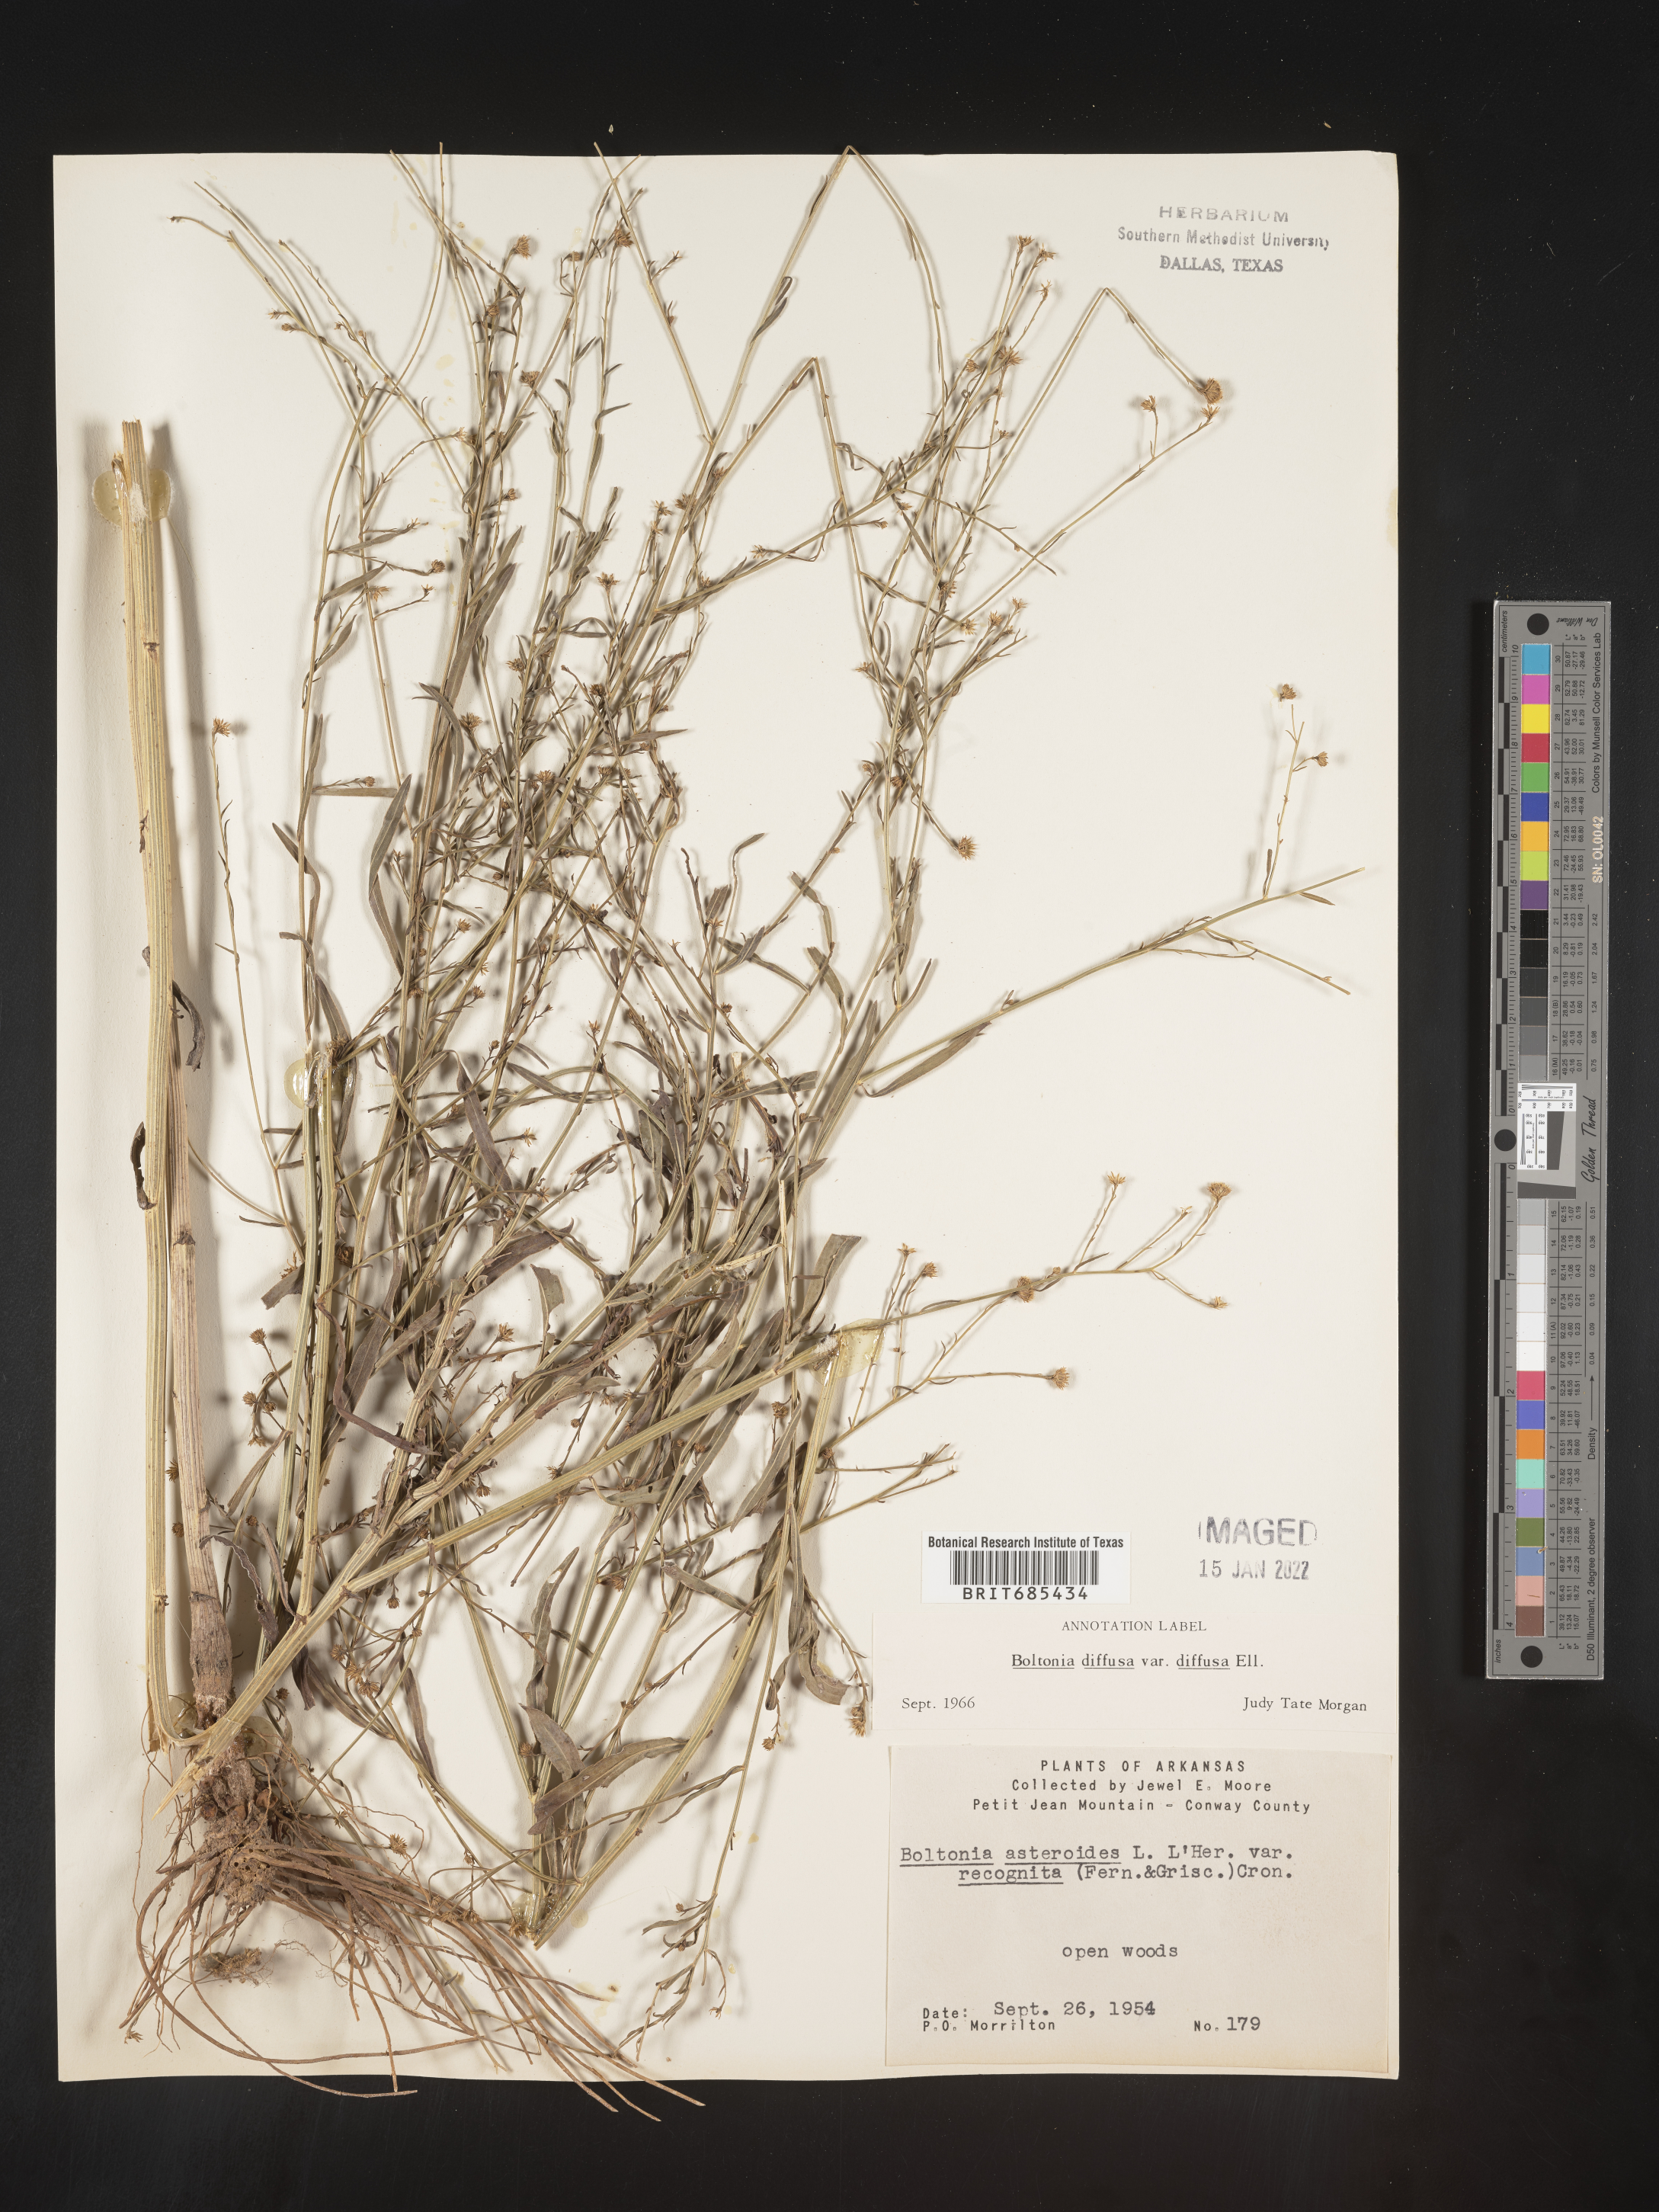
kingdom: Plantae
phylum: Tracheophyta
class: Magnoliopsida
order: Asterales
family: Asteraceae
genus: Boltonia
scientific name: Boltonia diffusa
